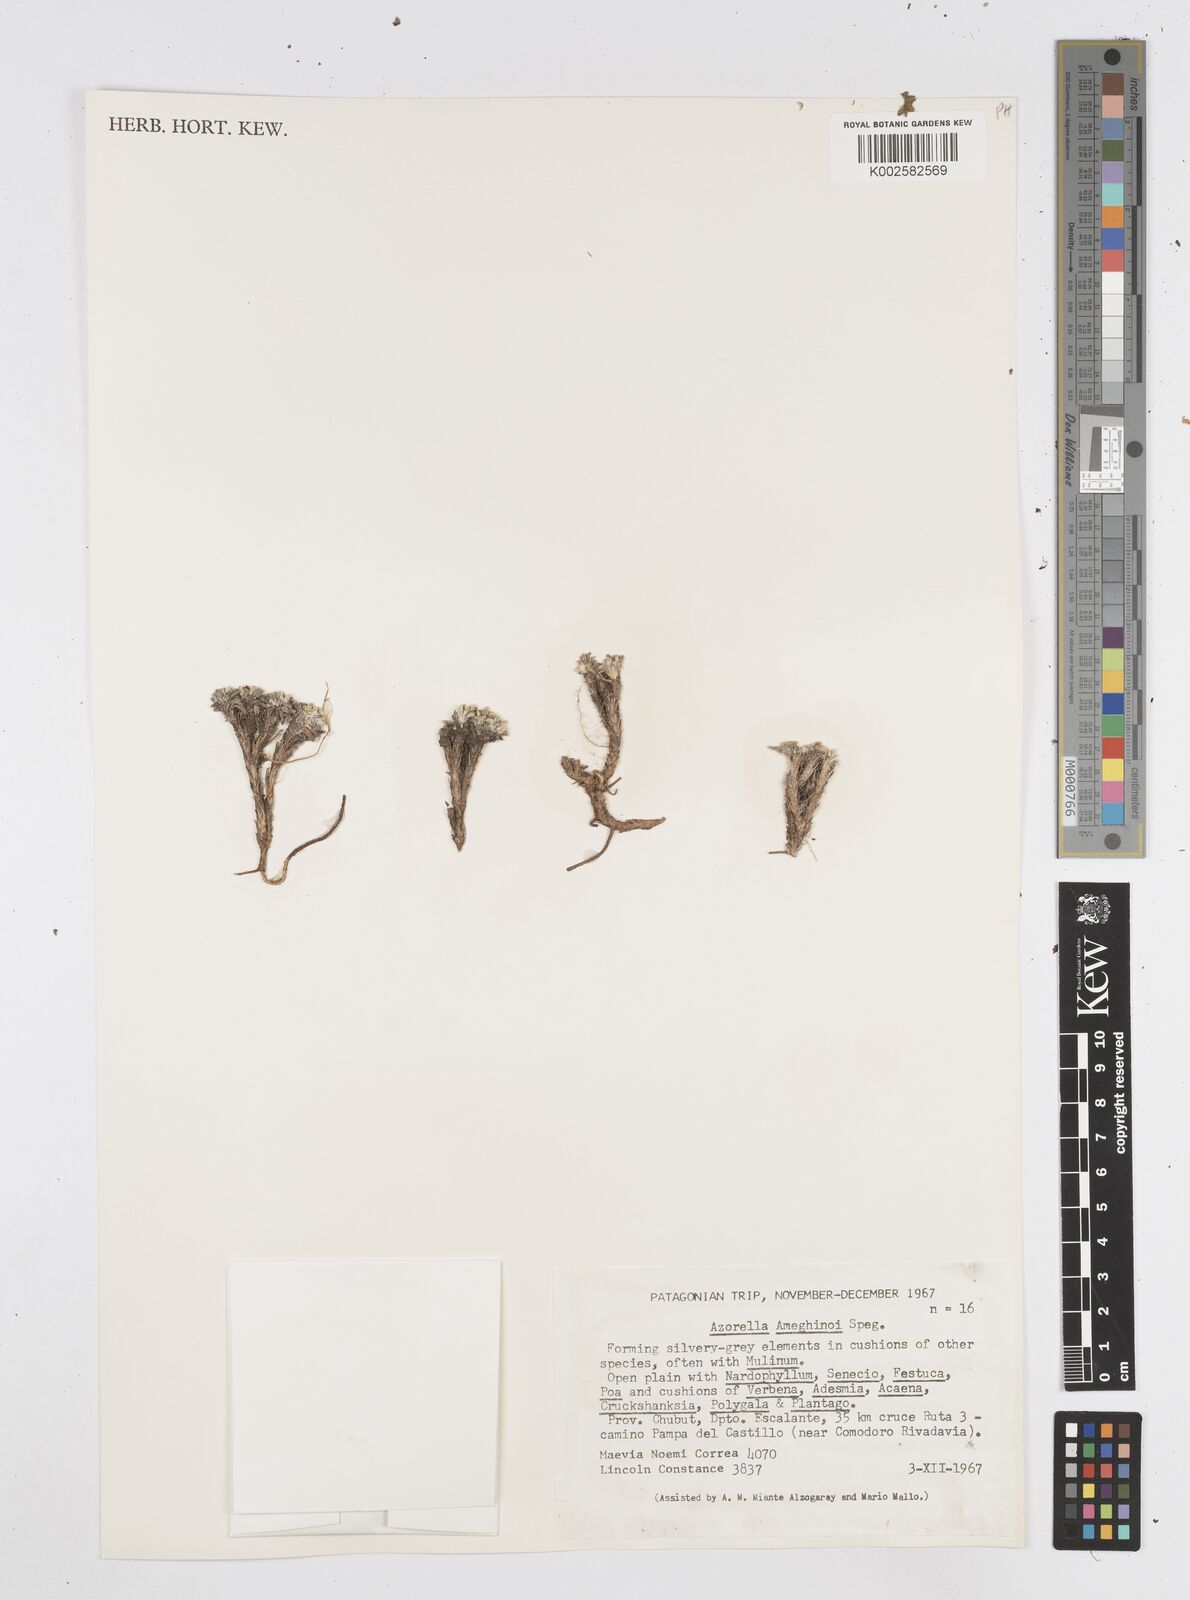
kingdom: Plantae
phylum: Tracheophyta
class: Magnoliopsida
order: Apiales
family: Apiaceae
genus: Azorella
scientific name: Azorella ameghinoi
